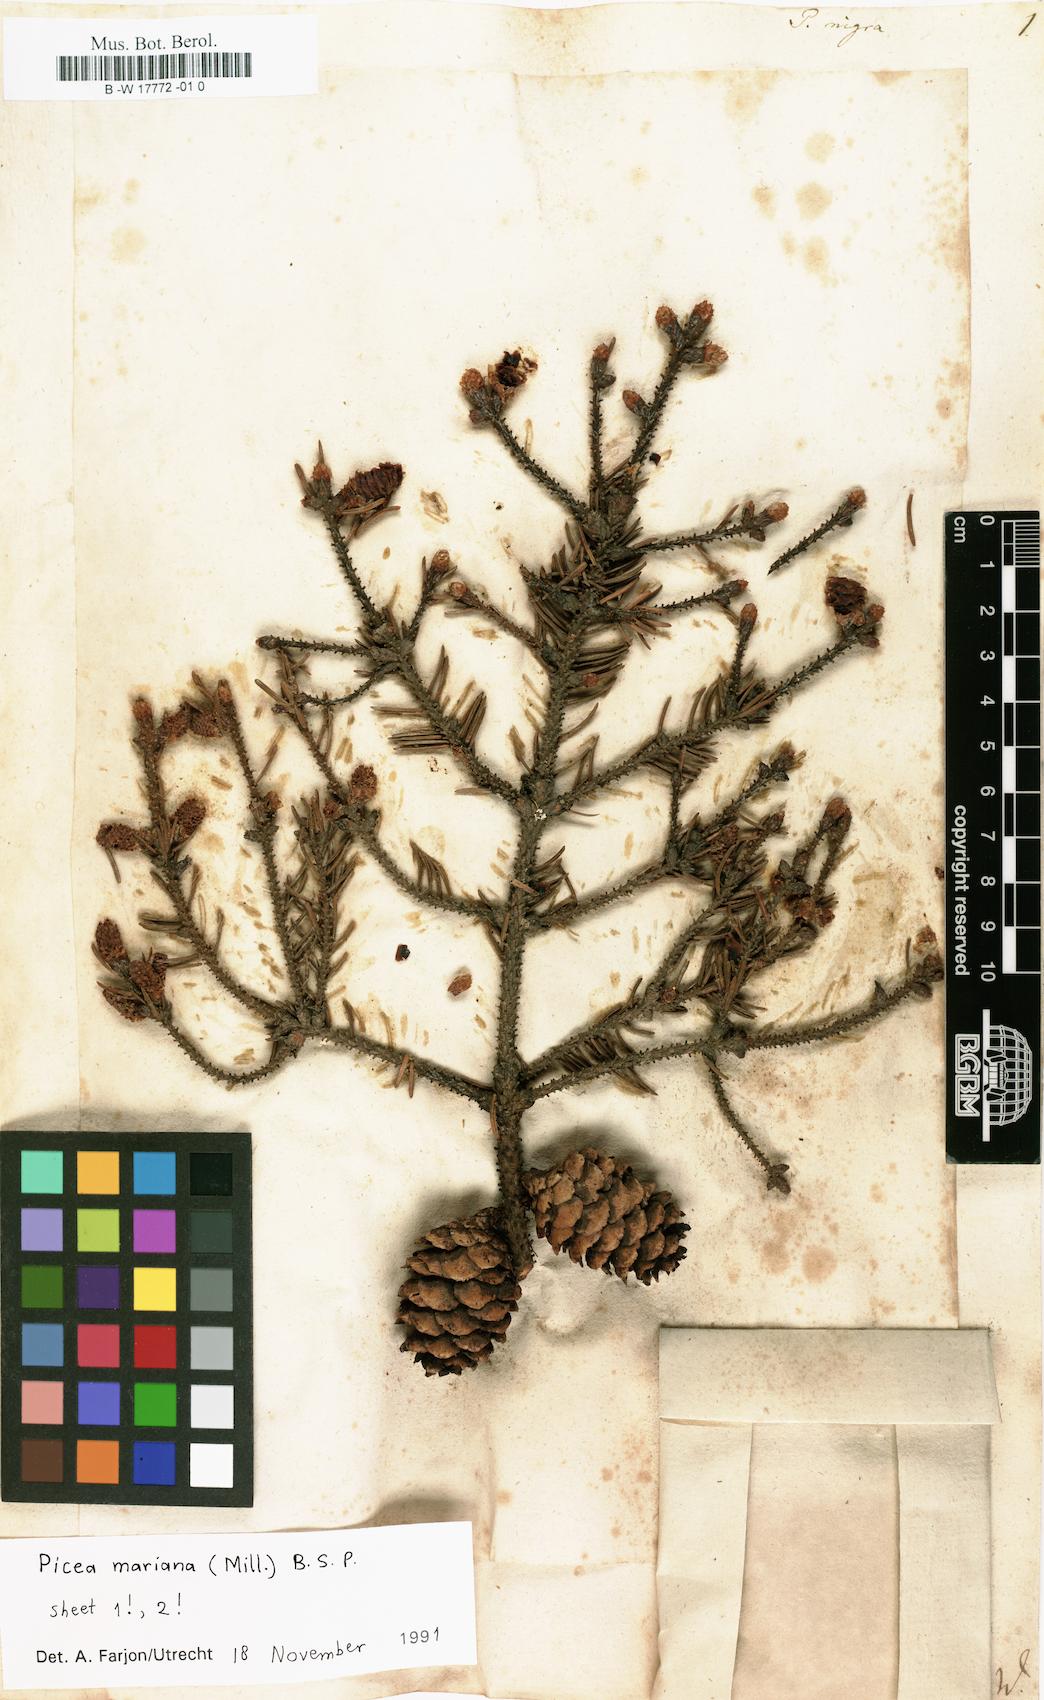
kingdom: Plantae
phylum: Tracheophyta
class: Pinopsida
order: Pinales
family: Pinaceae
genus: Pinus
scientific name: Pinus nigra
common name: Austrian pine
